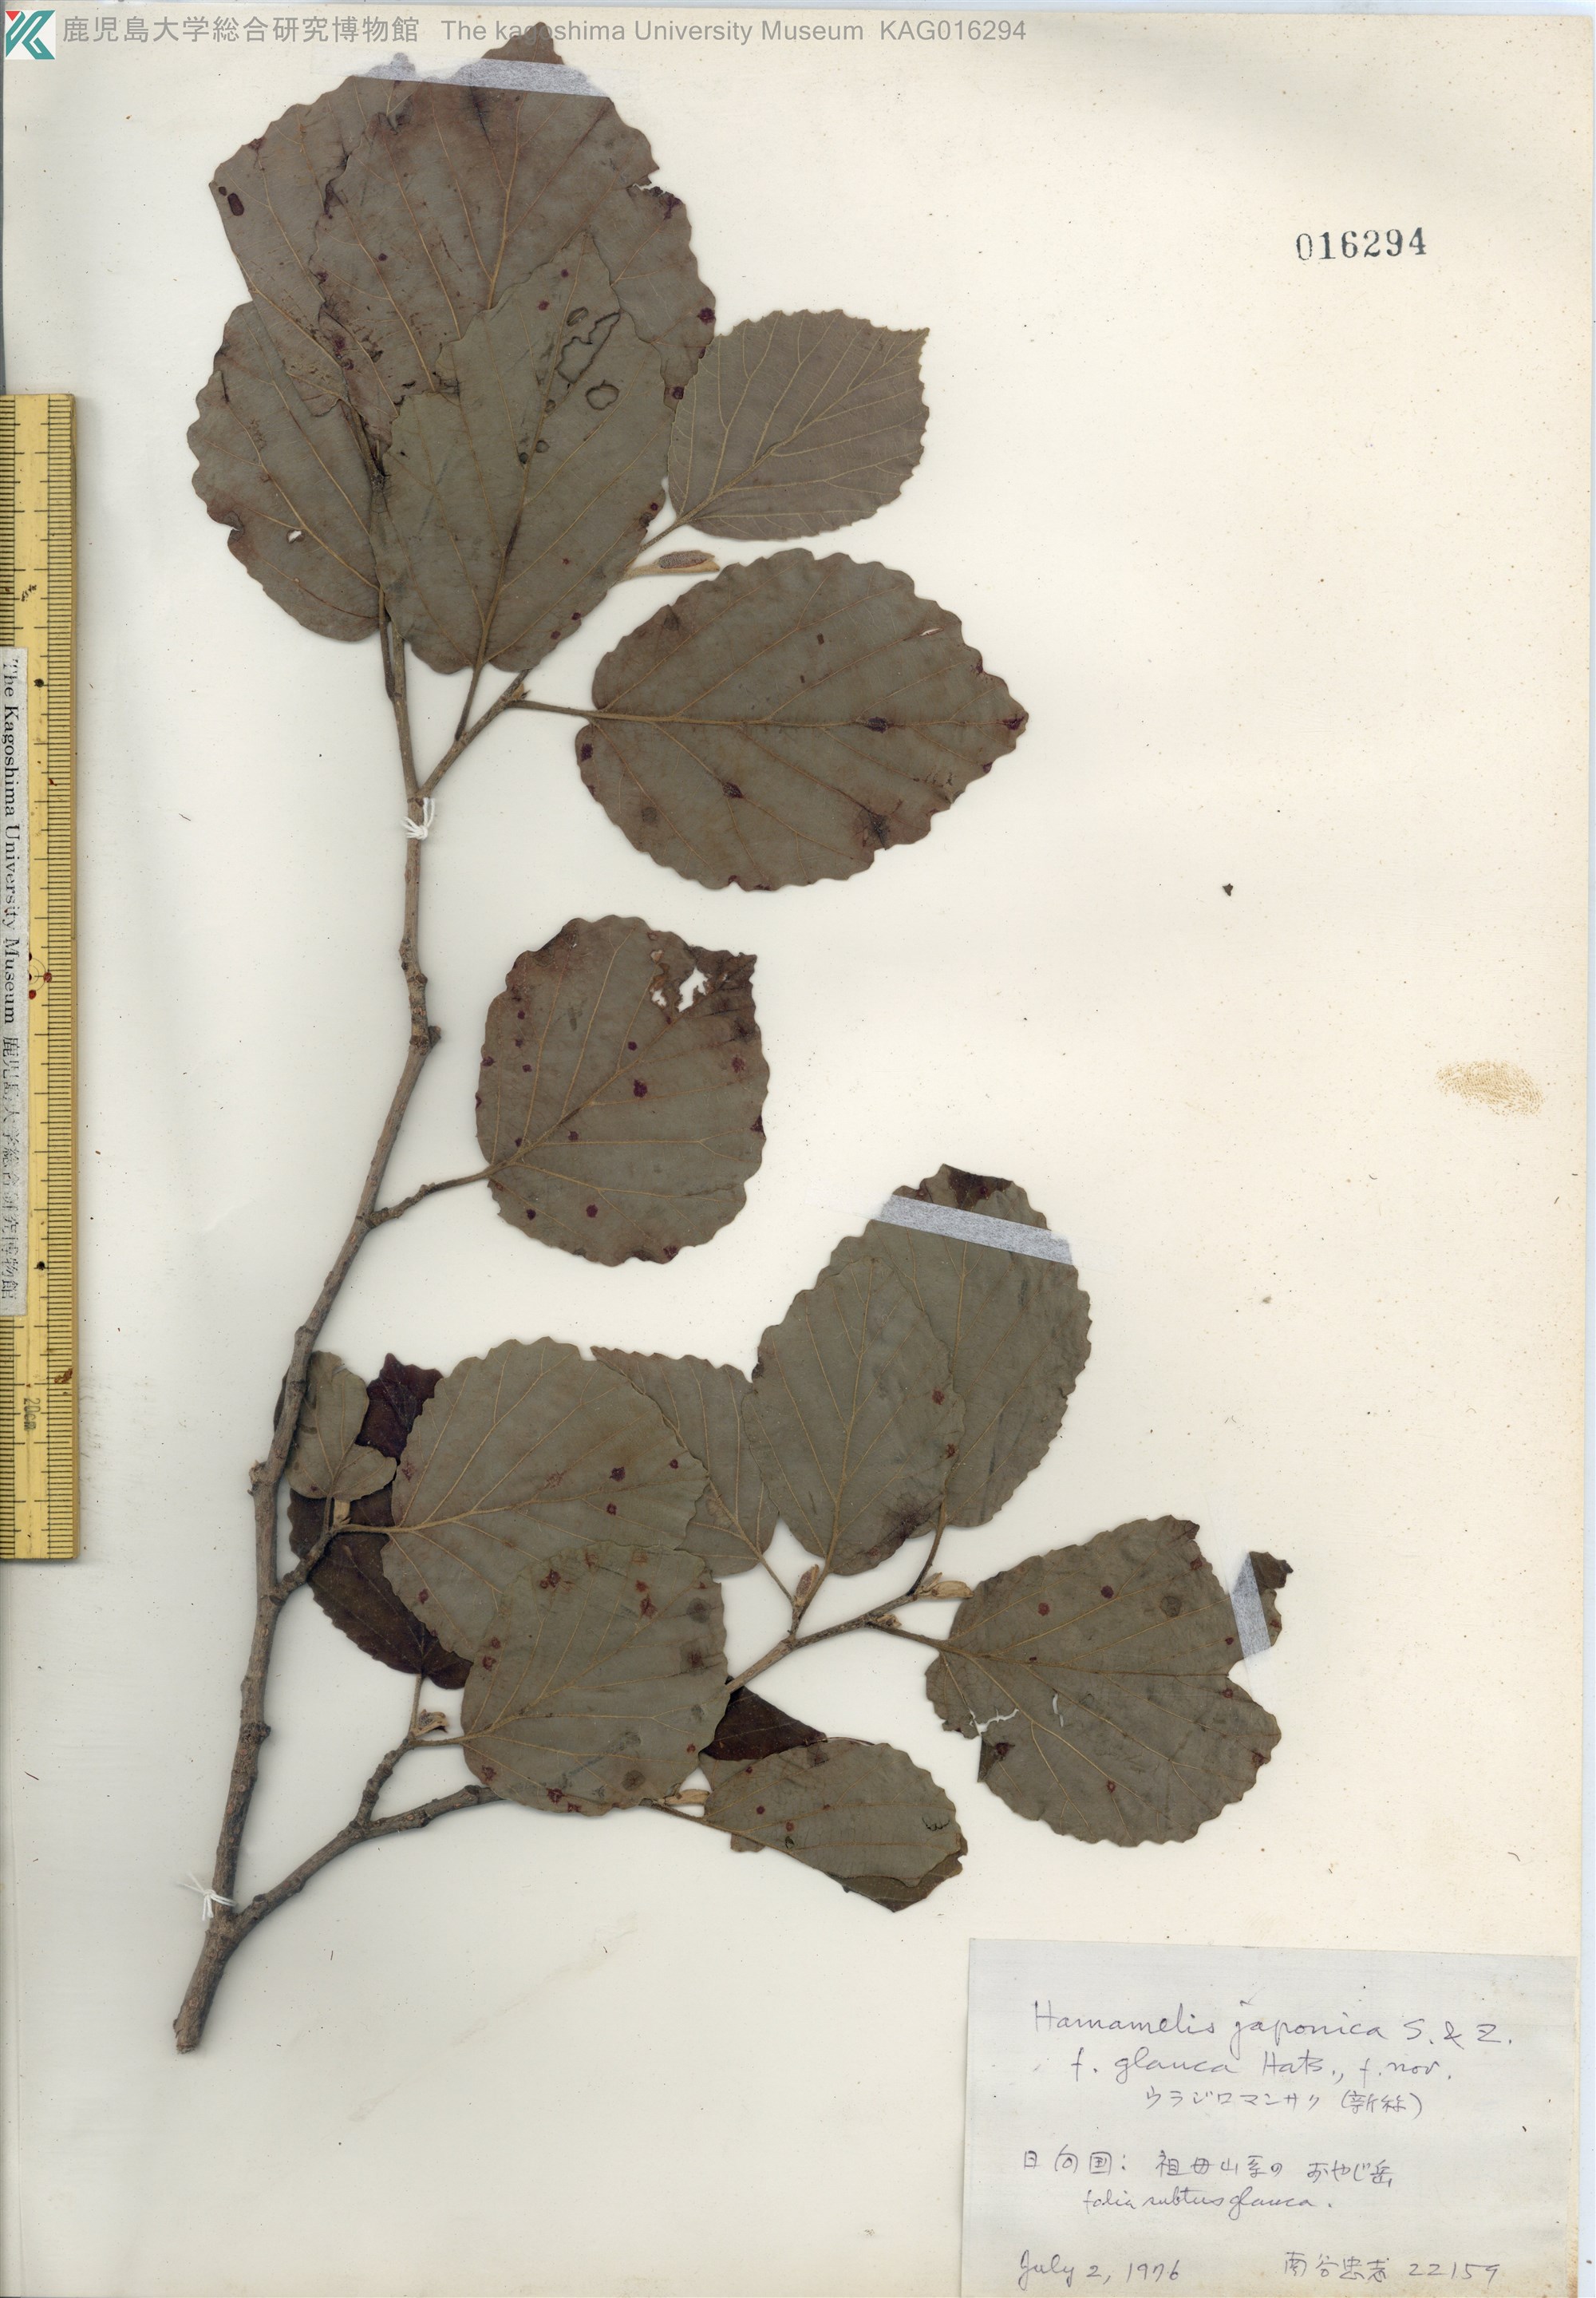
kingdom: Plantae
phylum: Tracheophyta
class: Magnoliopsida
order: Saxifragales
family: Hamamelidaceae
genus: Hamamelis
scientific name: Hamamelis japonica
